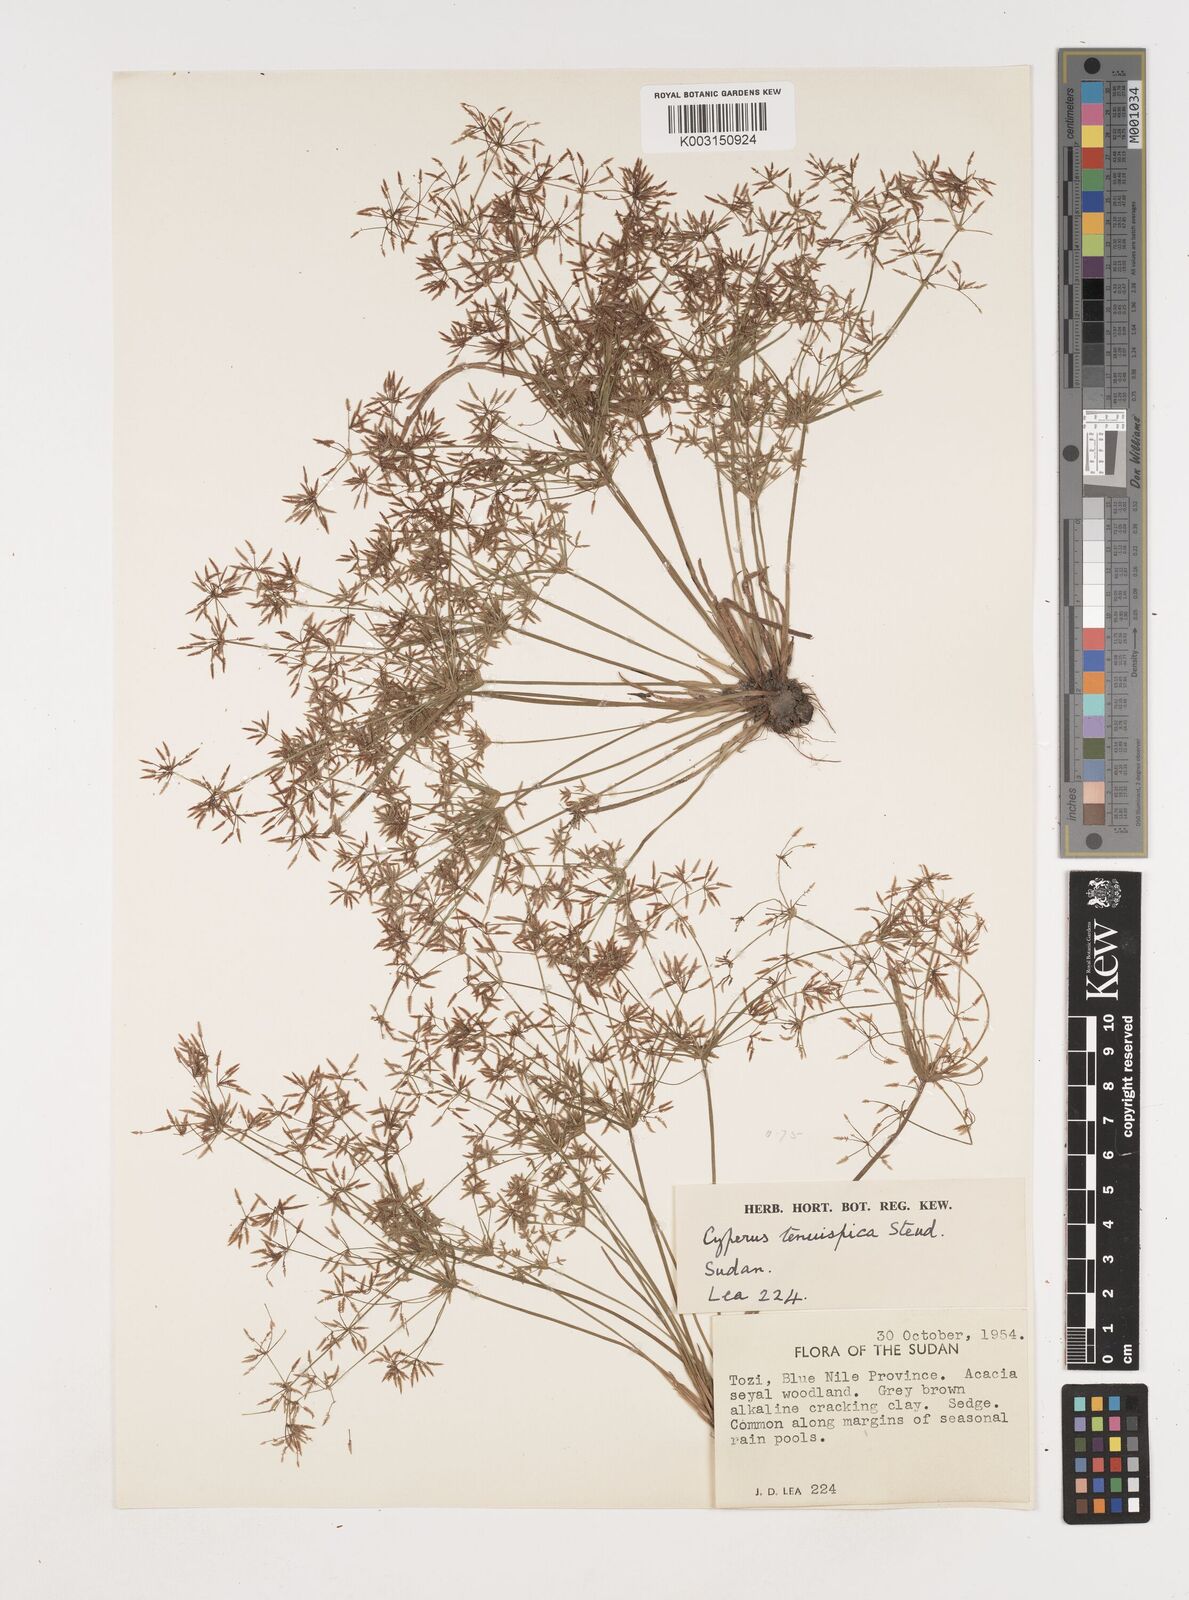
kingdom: Plantae
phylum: Tracheophyta
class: Liliopsida
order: Poales
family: Cyperaceae
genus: Cyperus
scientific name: Cyperus tenuispica
